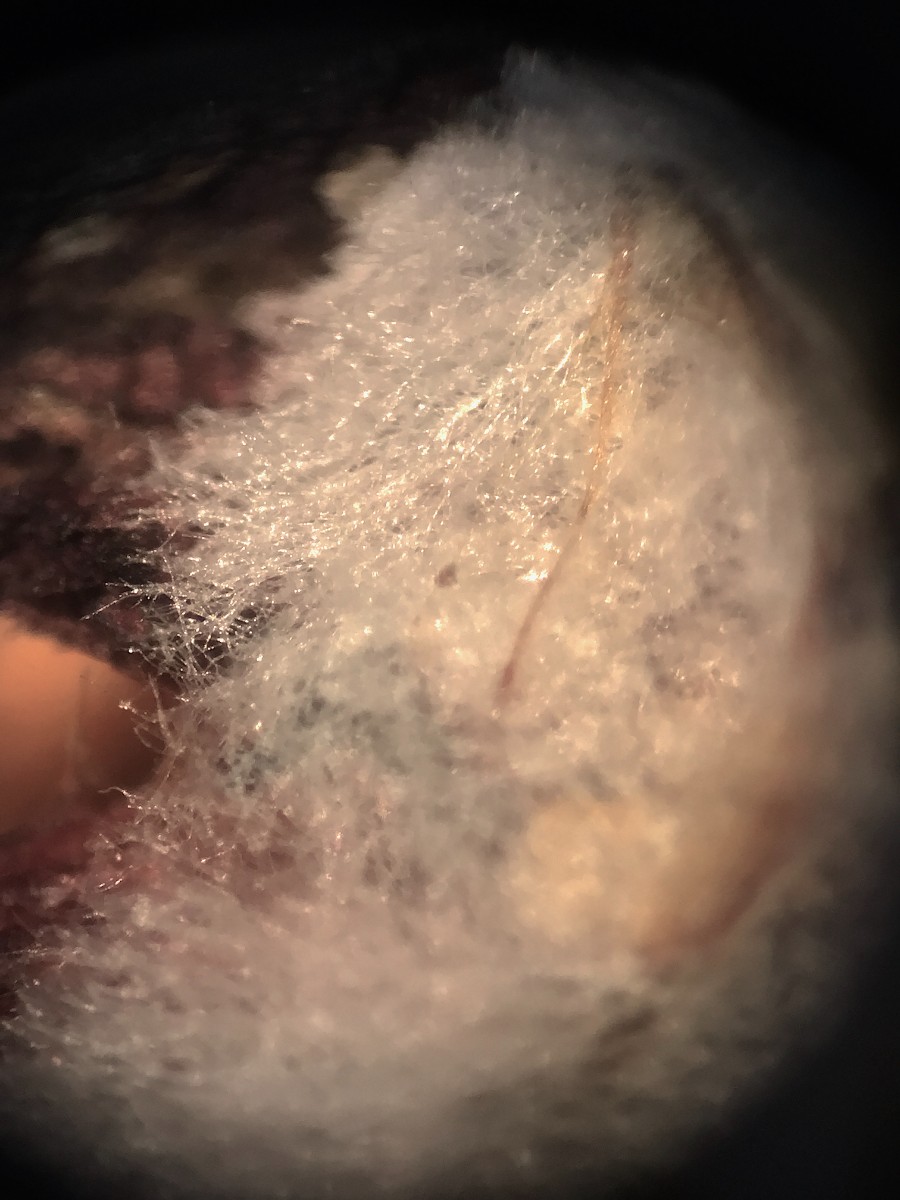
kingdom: Fungi
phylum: Basidiomycota
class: Agaricomycetes
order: Russulales
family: Xenasmataceae
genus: Xenasmatella
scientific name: Xenasmatella vaga
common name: svovl-strenghinde
